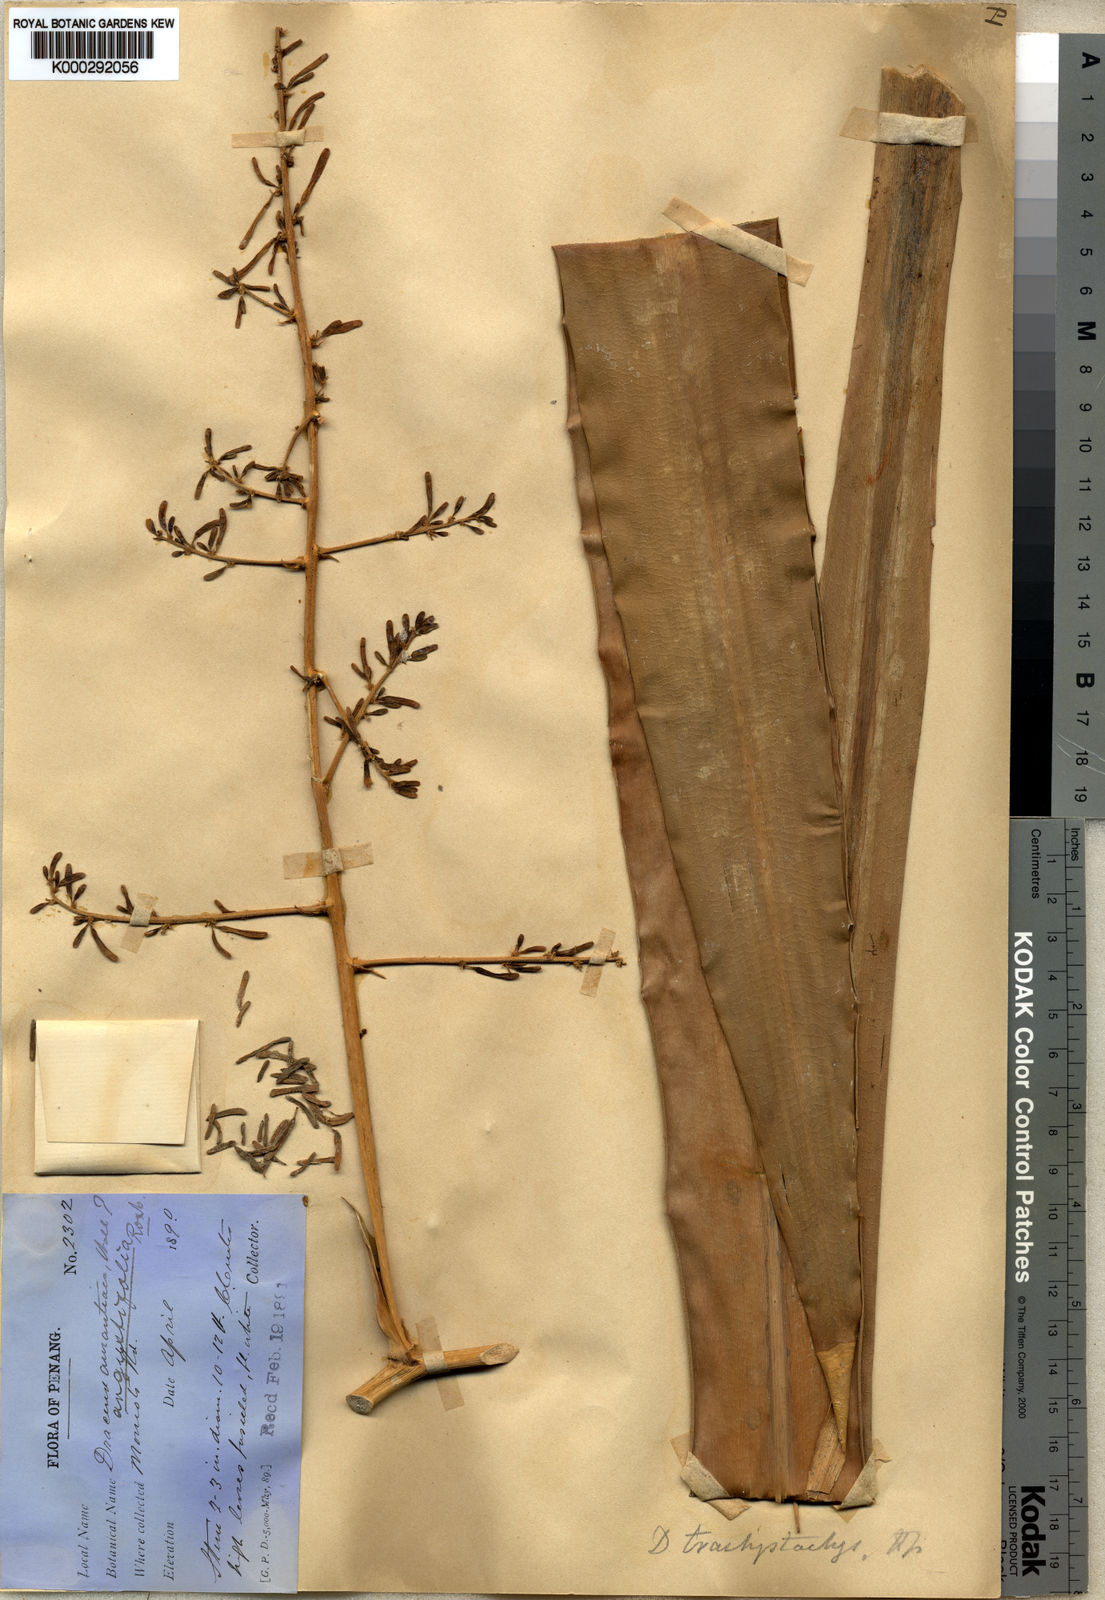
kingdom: Plantae
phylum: Tracheophyta
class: Liliopsida
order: Asparagales
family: Asparagaceae
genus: Dracaena
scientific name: Dracaena brachystachys
